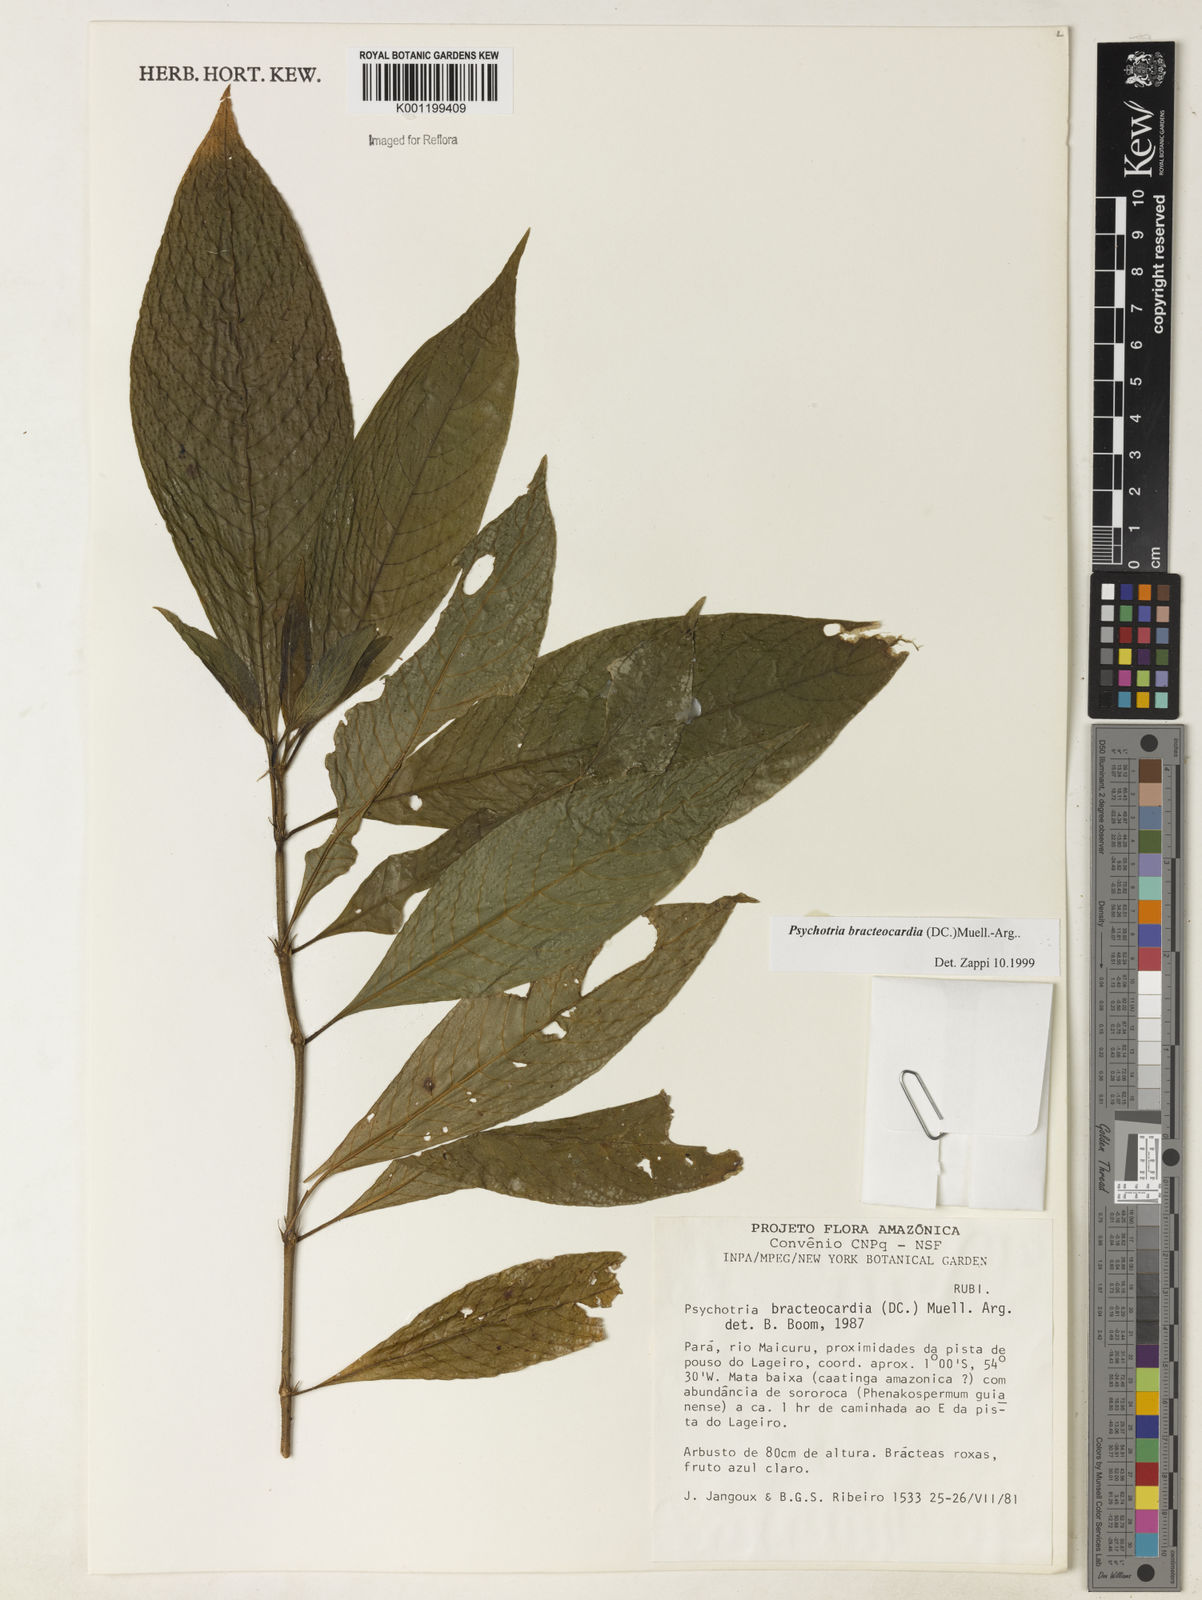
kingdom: Plantae
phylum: Tracheophyta
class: Magnoliopsida
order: Gentianales
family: Rubiaceae
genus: Psychotria
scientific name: Psychotria
